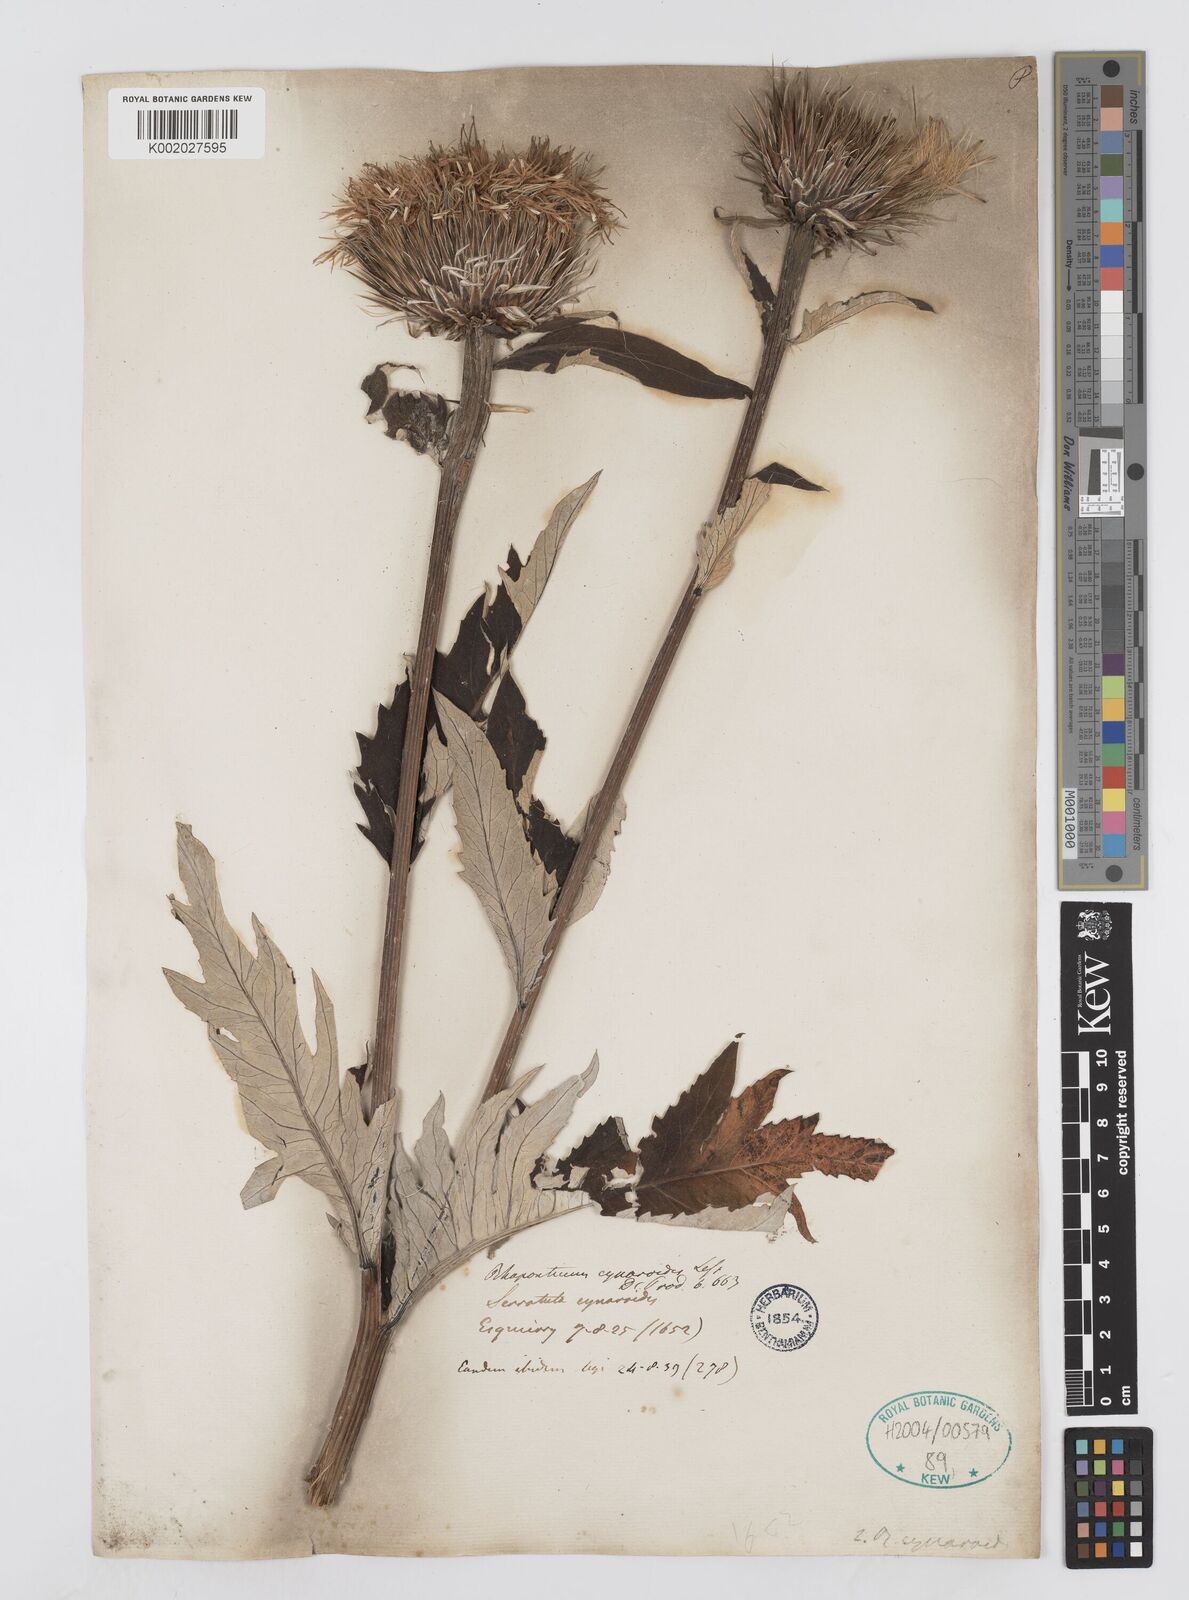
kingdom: Plantae
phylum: Tracheophyta
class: Magnoliopsida
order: Asterales
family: Asteraceae
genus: Leuzea
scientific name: Leuzea centauroides
